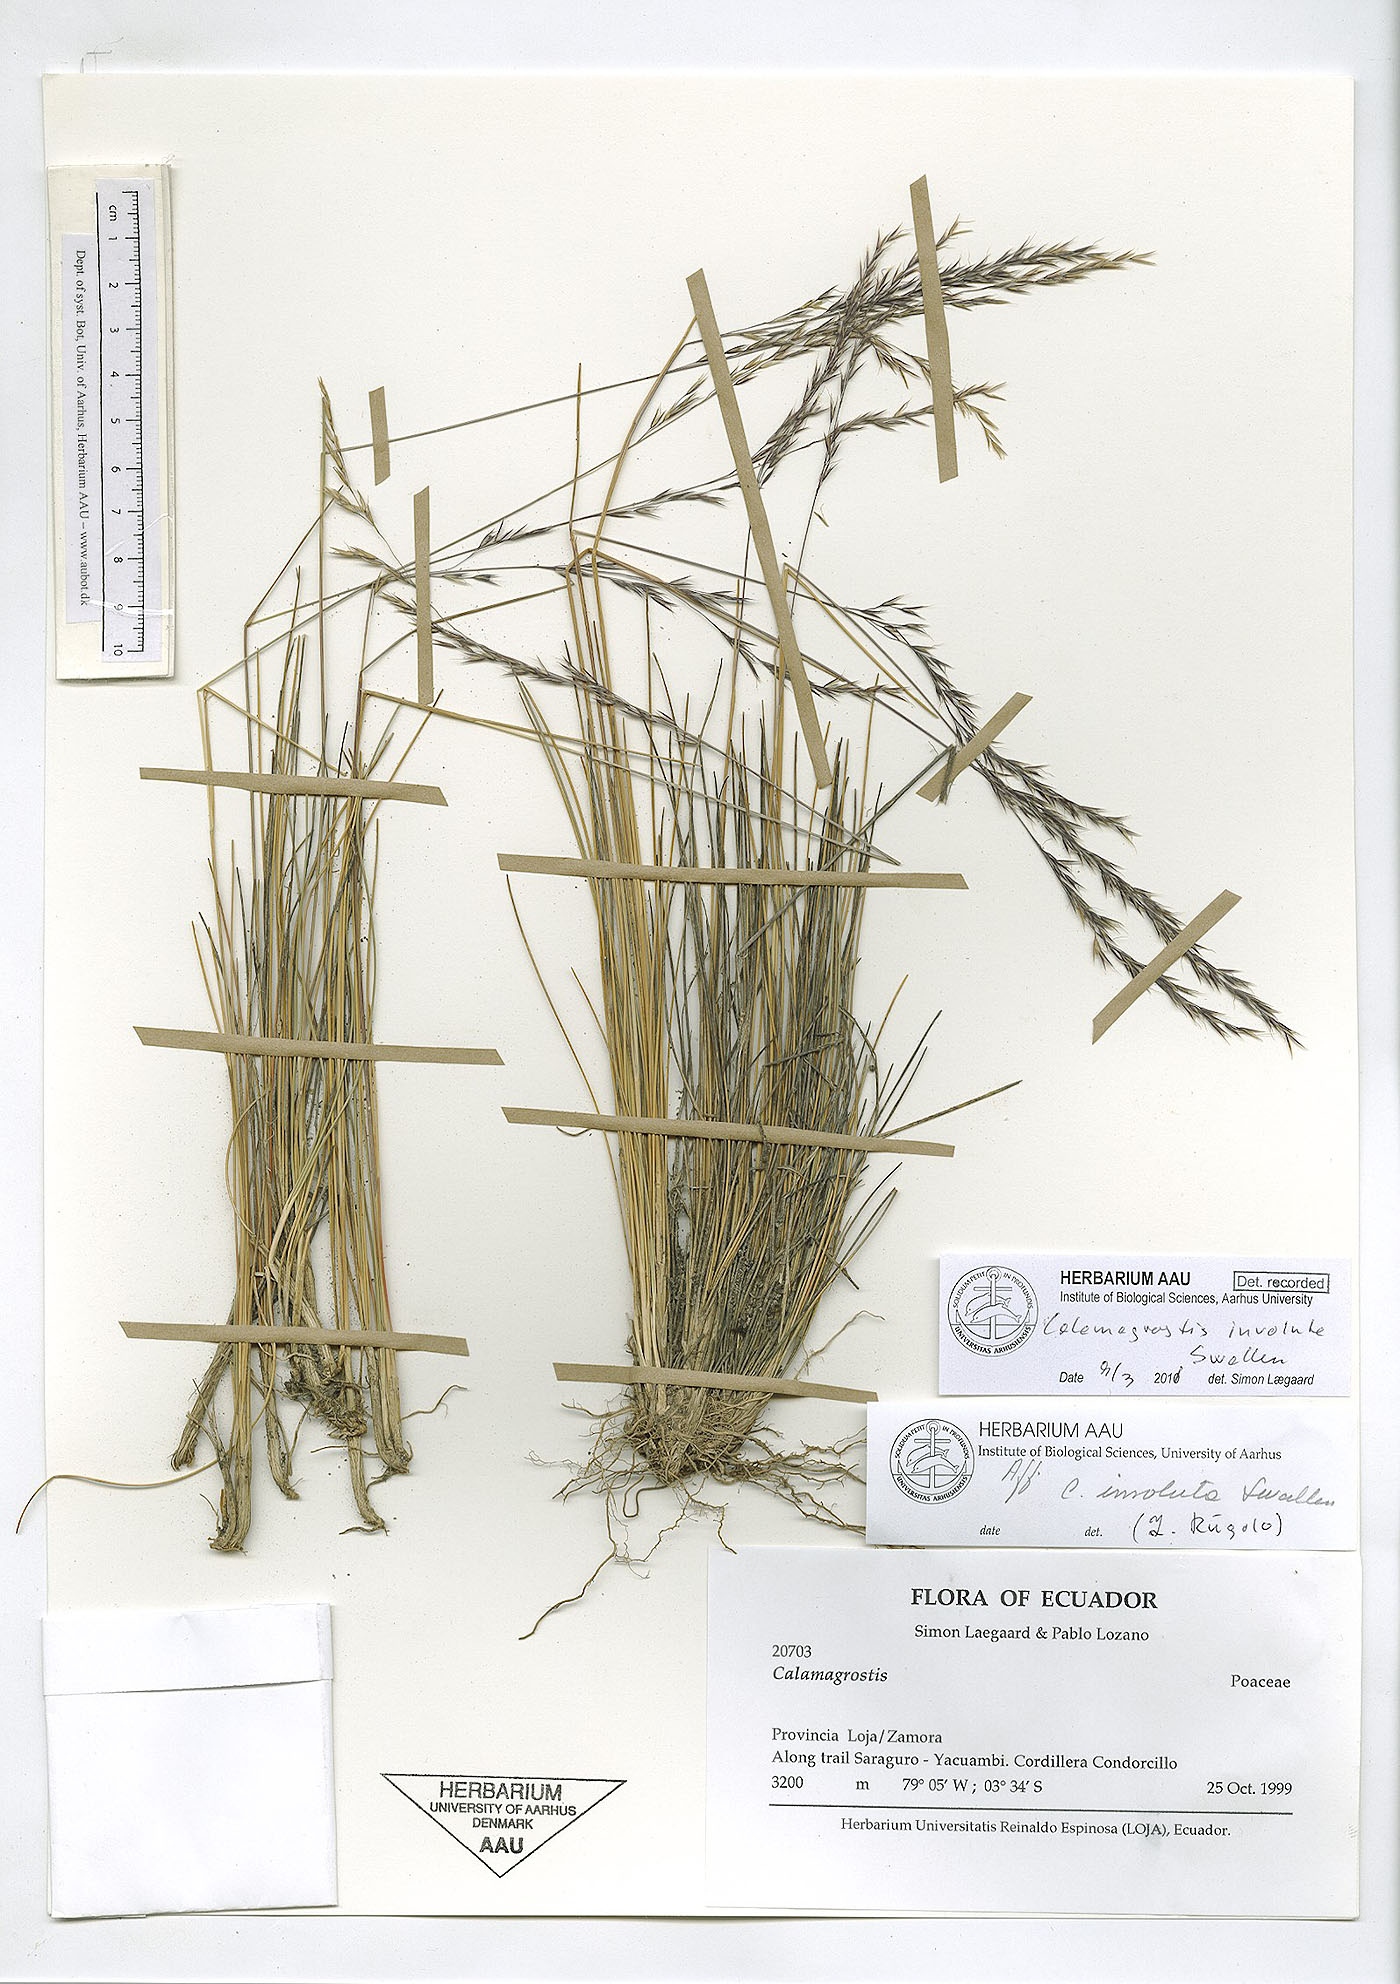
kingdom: Plantae
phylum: Tracheophyta
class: Liliopsida
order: Poales
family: Poaceae
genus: Cinnagrostis
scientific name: Cinnagrostis involuta
